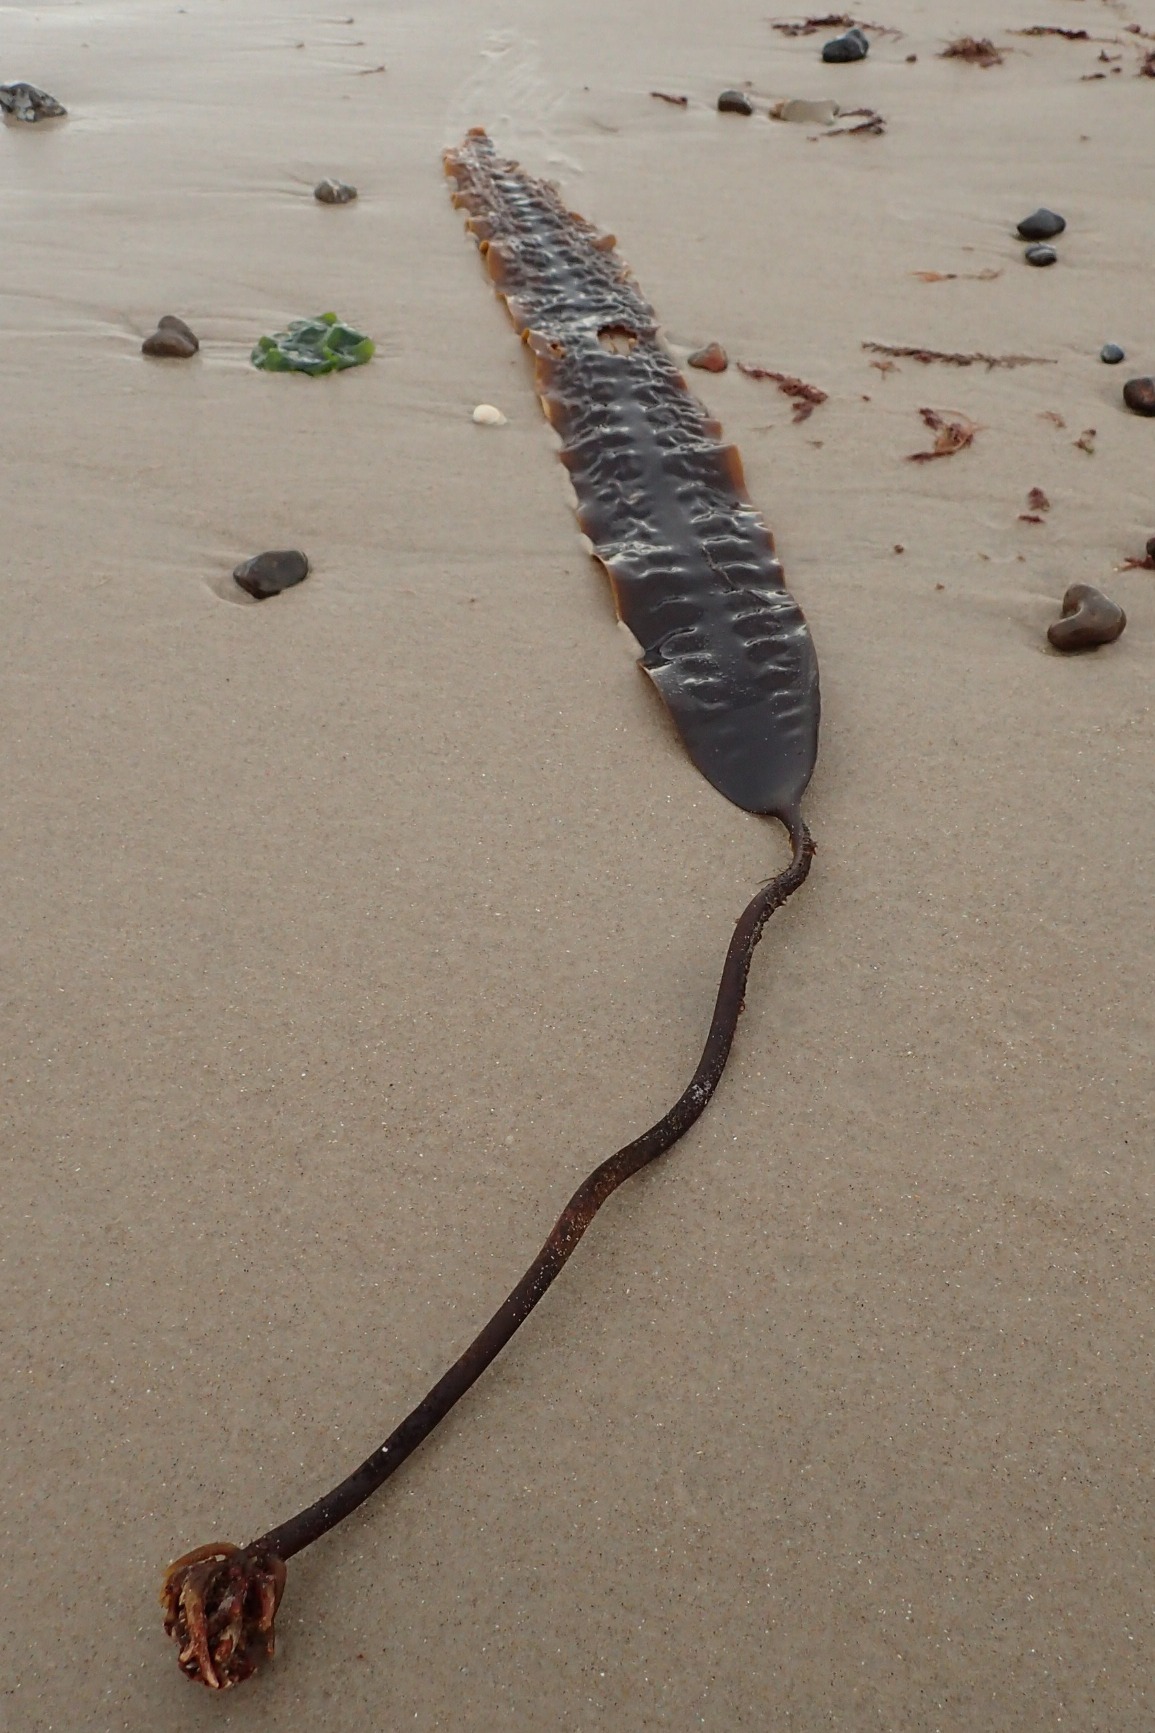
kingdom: Chromista
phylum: Ochrophyta
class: Phaeophyceae
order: Laminariales
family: Laminariaceae
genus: Saccharina
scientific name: Saccharina latissima
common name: Sukkertang
